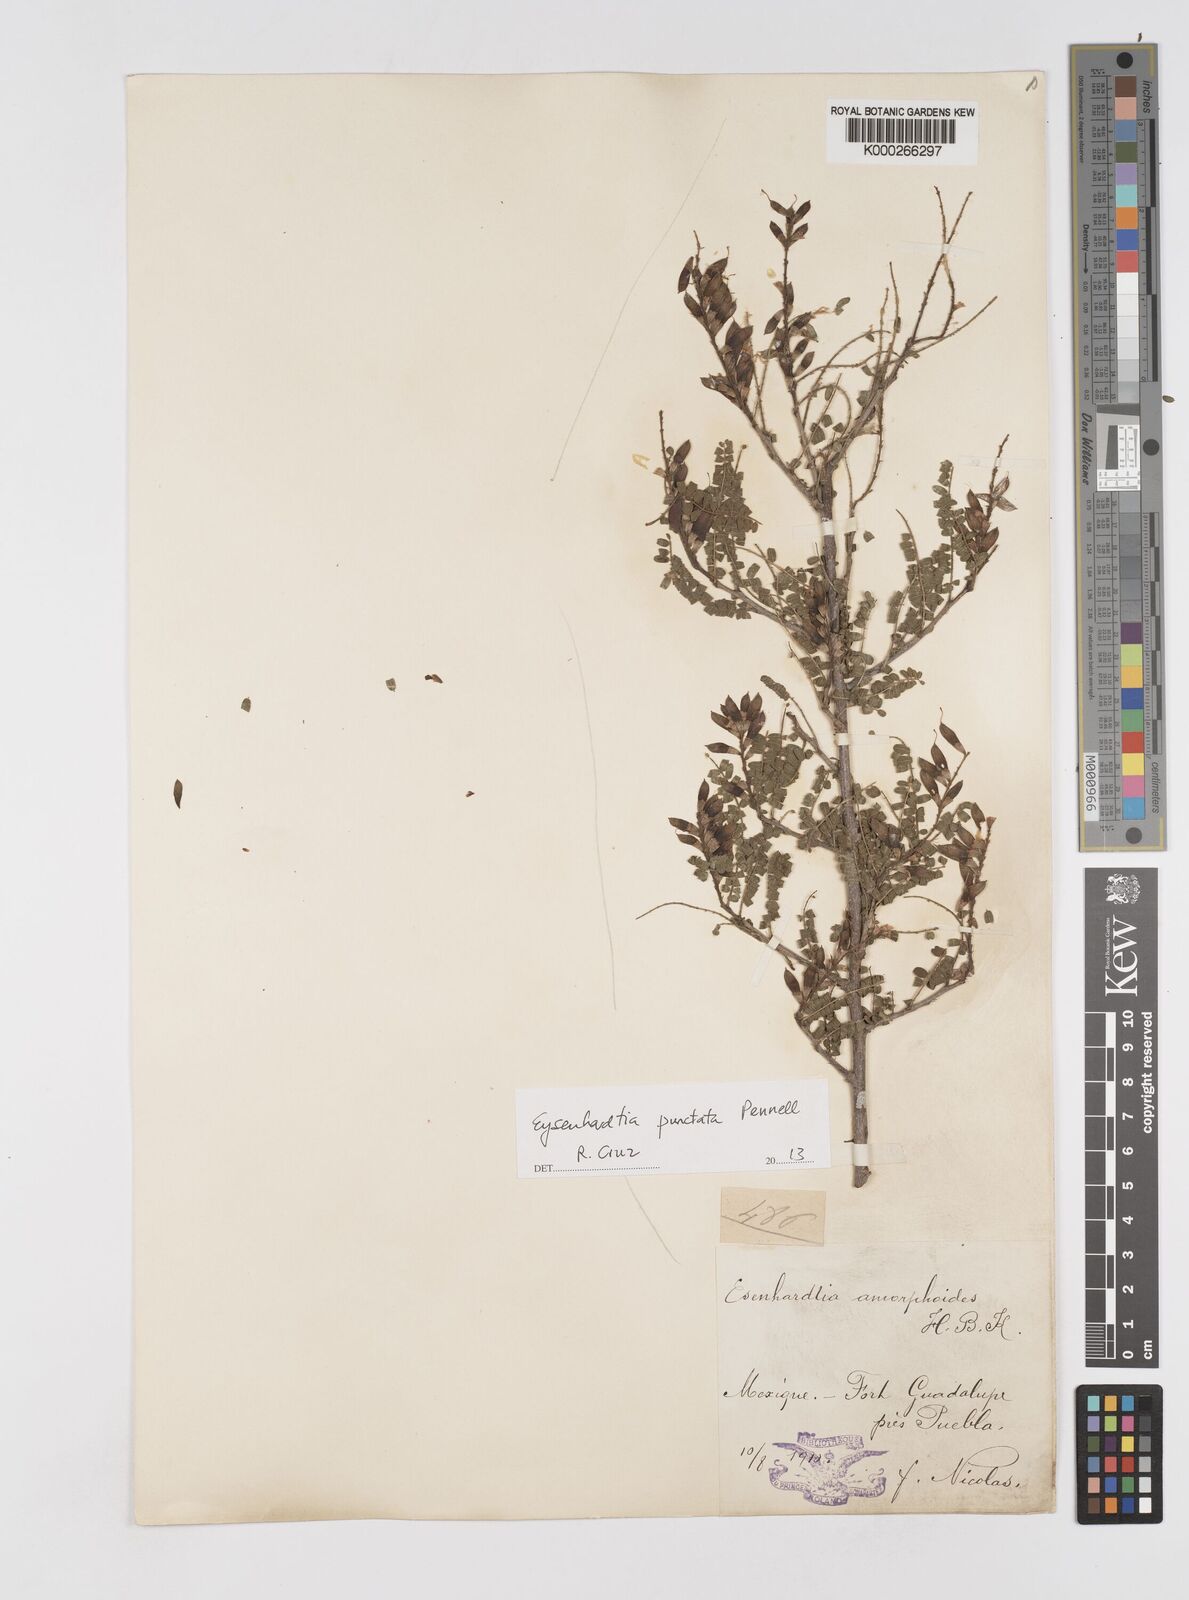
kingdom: Plantae
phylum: Tracheophyta
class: Magnoliopsida
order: Fabales
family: Fabaceae
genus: Eysenhardtia
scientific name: Eysenhardtia punctata
